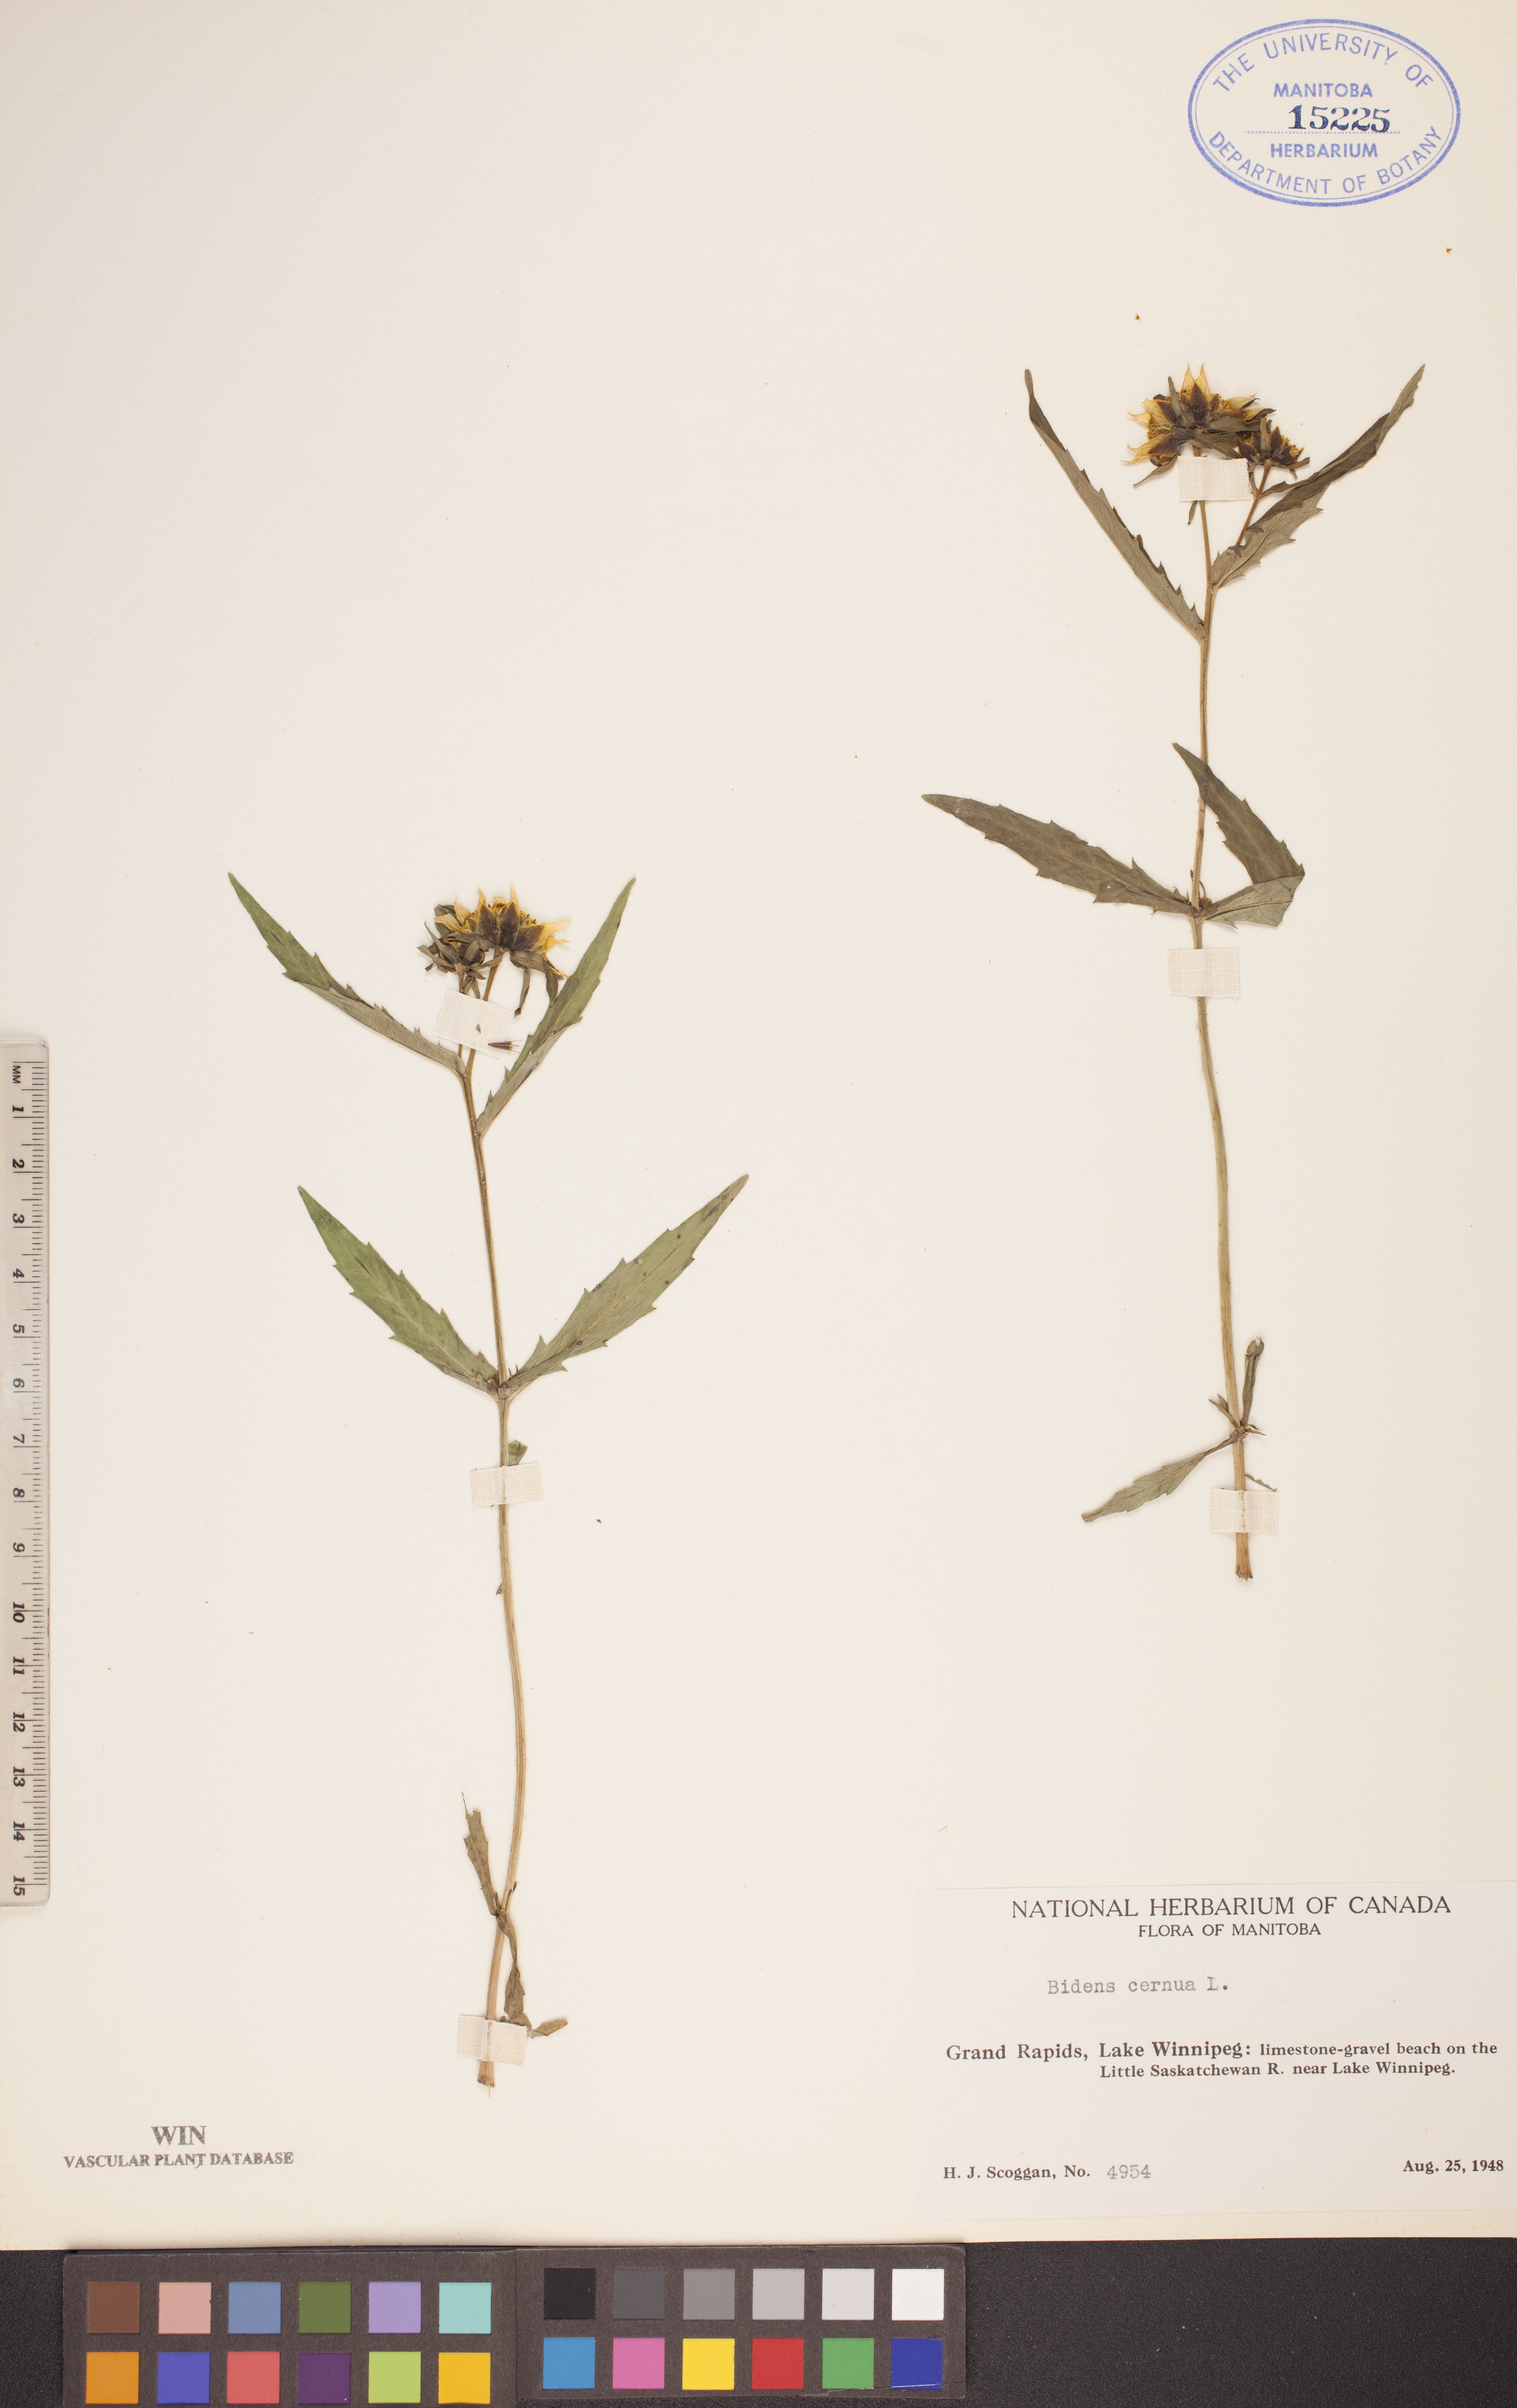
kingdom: Plantae
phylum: Tracheophyta
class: Magnoliopsida
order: Asterales
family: Asteraceae
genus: Bidens
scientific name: Bidens cernua
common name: Nodding bur-marigold
